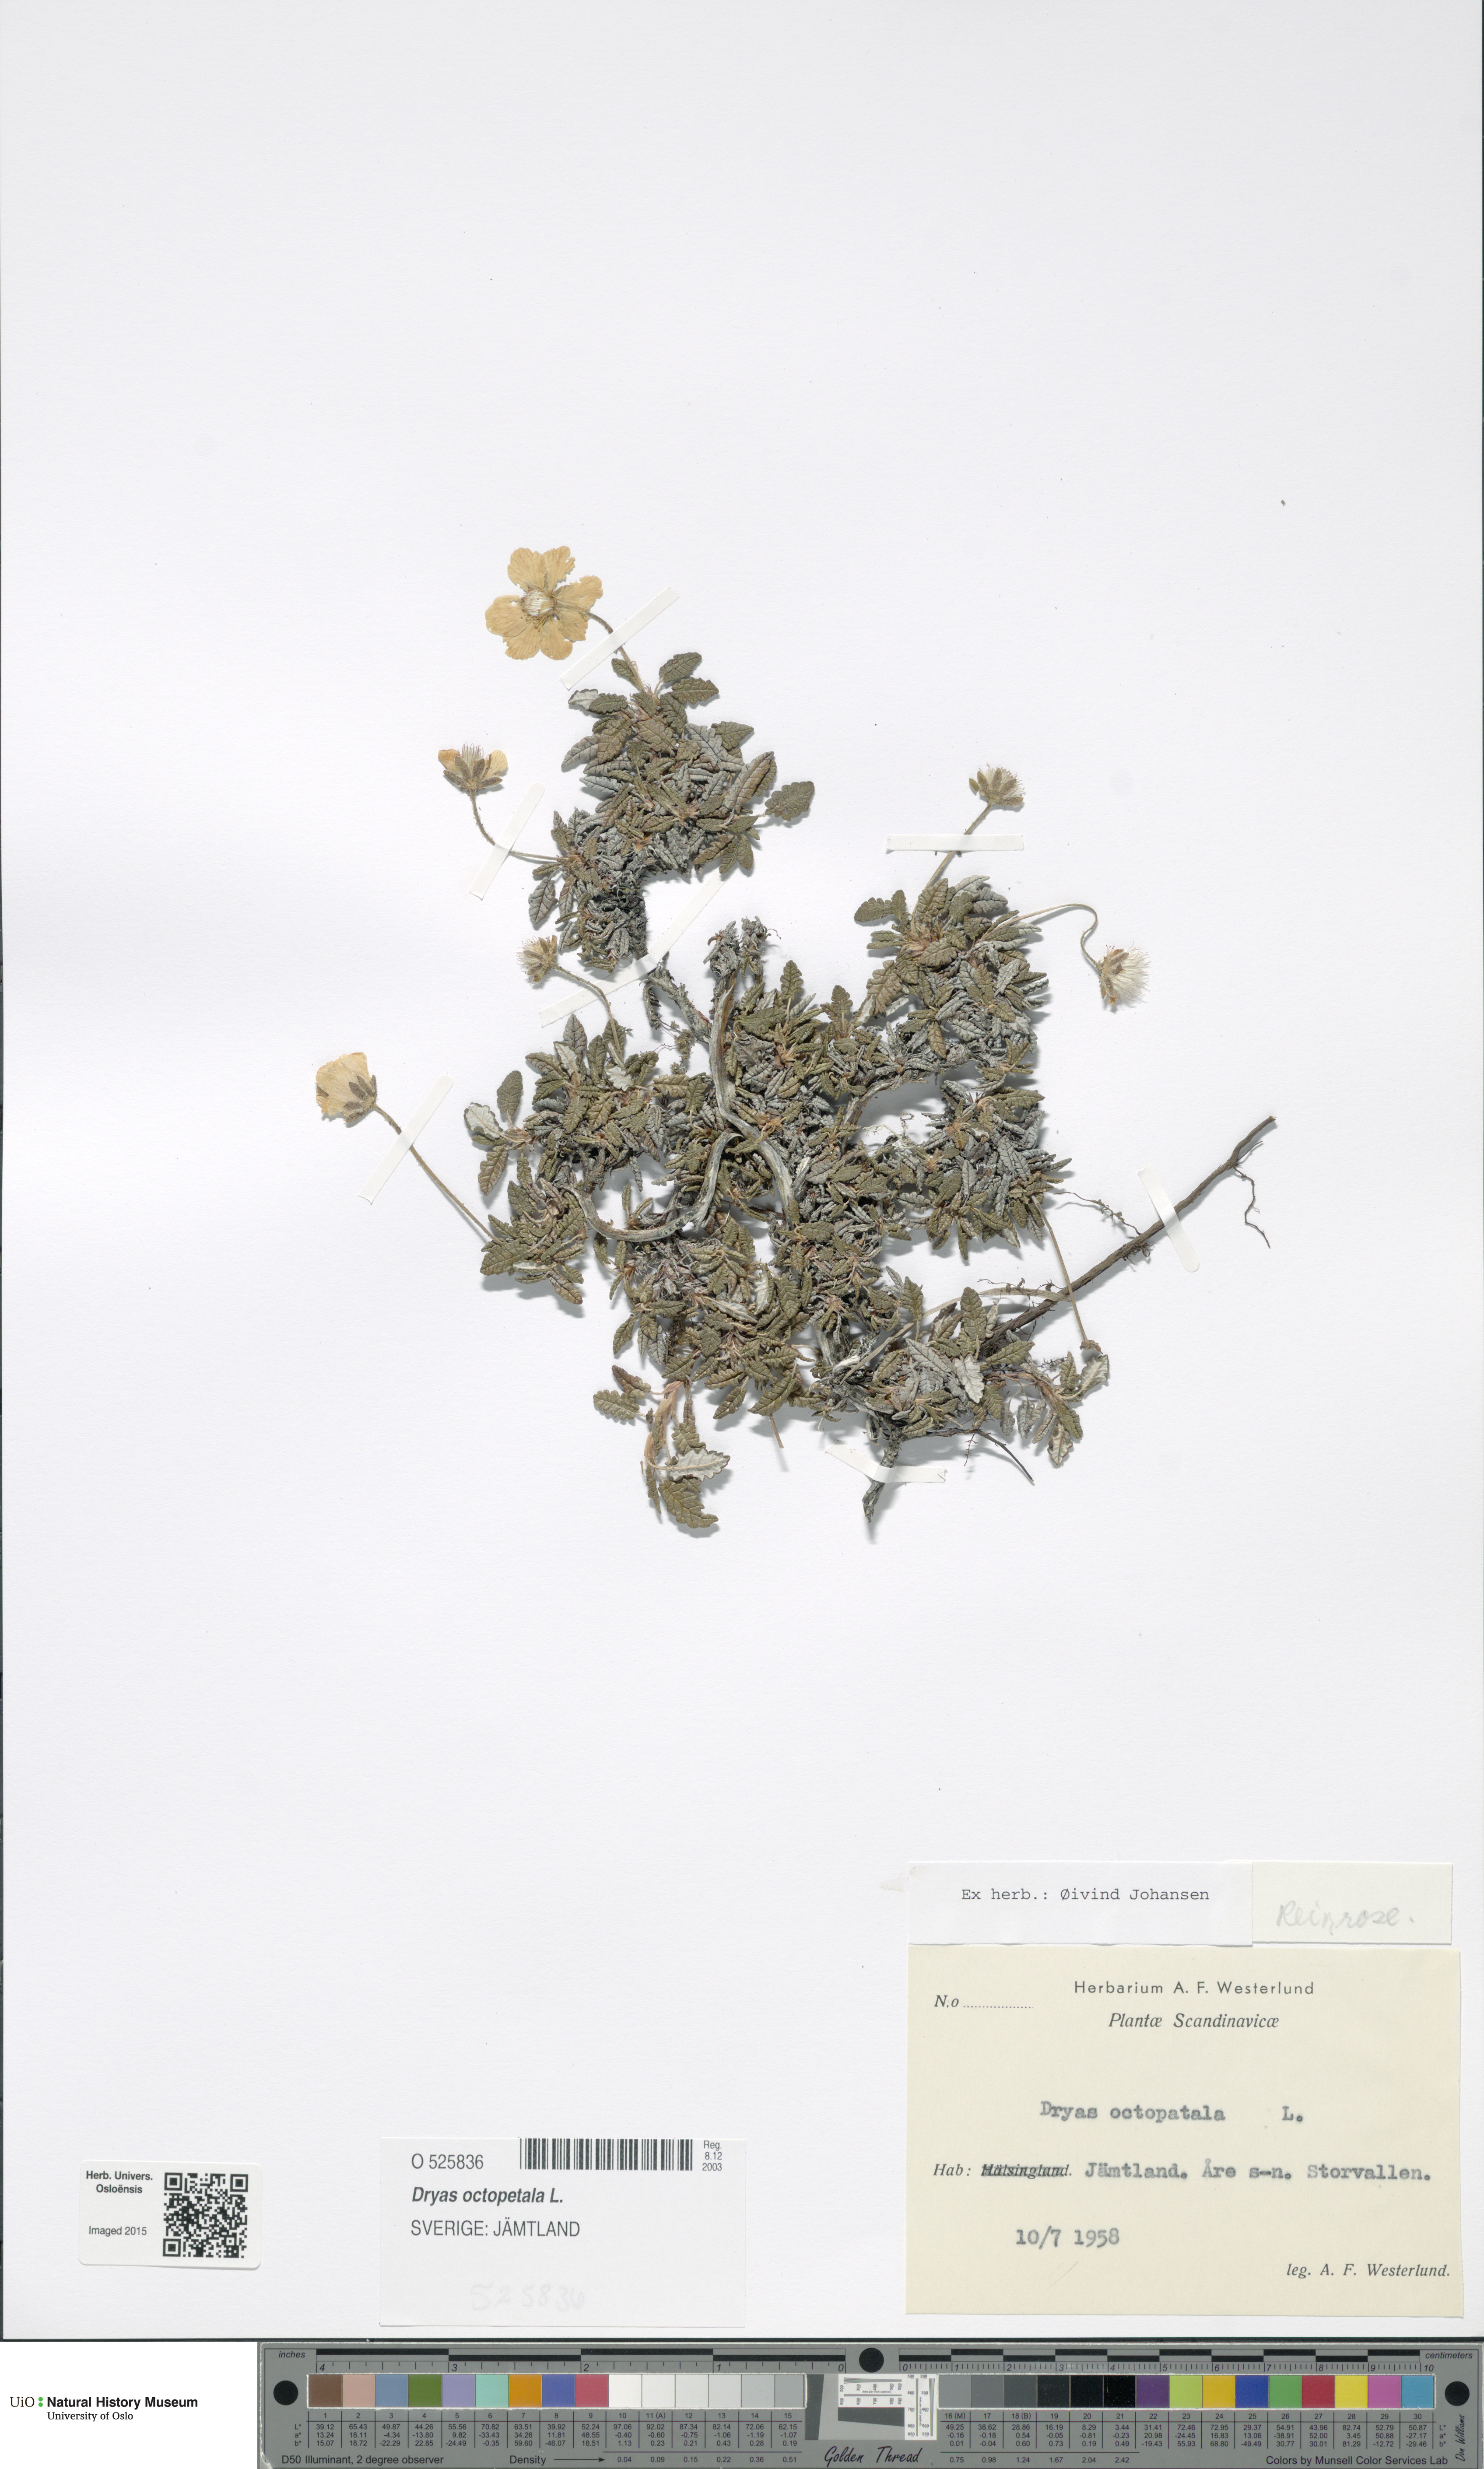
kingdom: Plantae
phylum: Tracheophyta
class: Magnoliopsida
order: Rosales
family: Rosaceae
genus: Dryas
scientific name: Dryas octopetala
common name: Eight-petal mountain-avens
